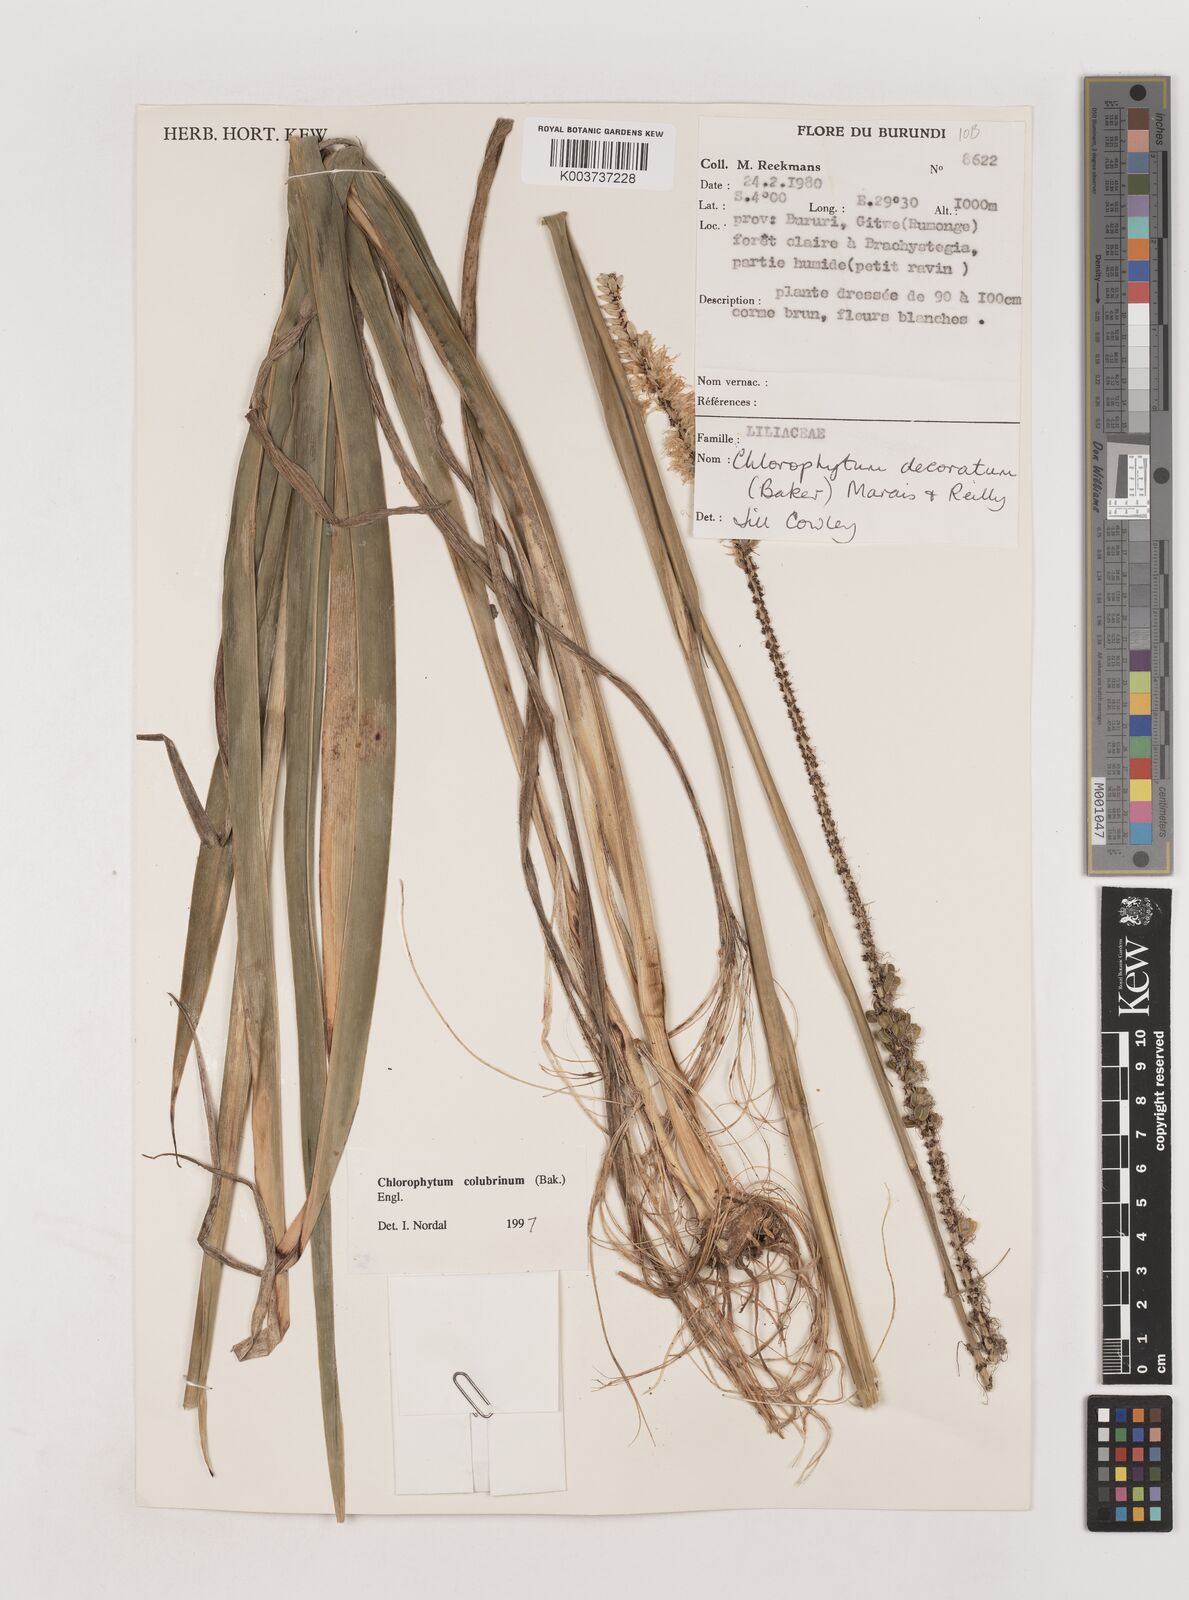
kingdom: Plantae
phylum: Tracheophyta
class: Liliopsida
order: Asparagales
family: Asparagaceae
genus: Chlorophytum
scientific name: Chlorophytum colubrinum
